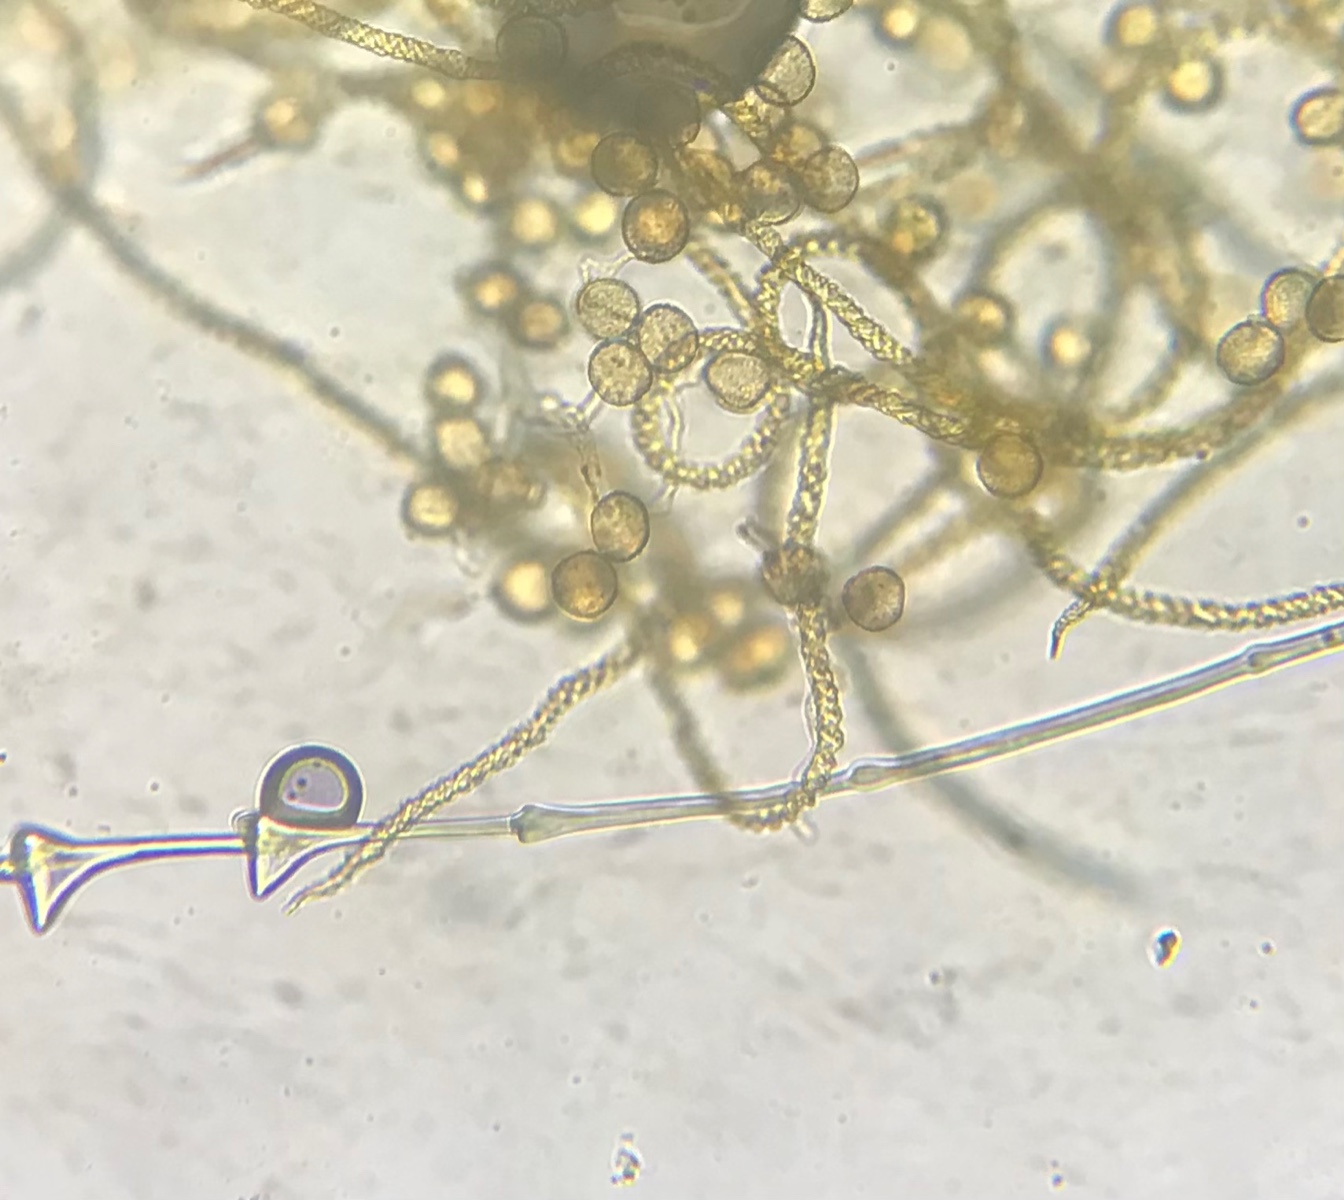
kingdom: Protozoa
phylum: Mycetozoa
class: Myxomycetes
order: Trichiales
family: Trichiaceae
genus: Trichia
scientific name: Trichia varia
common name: foranderlig hårbold
